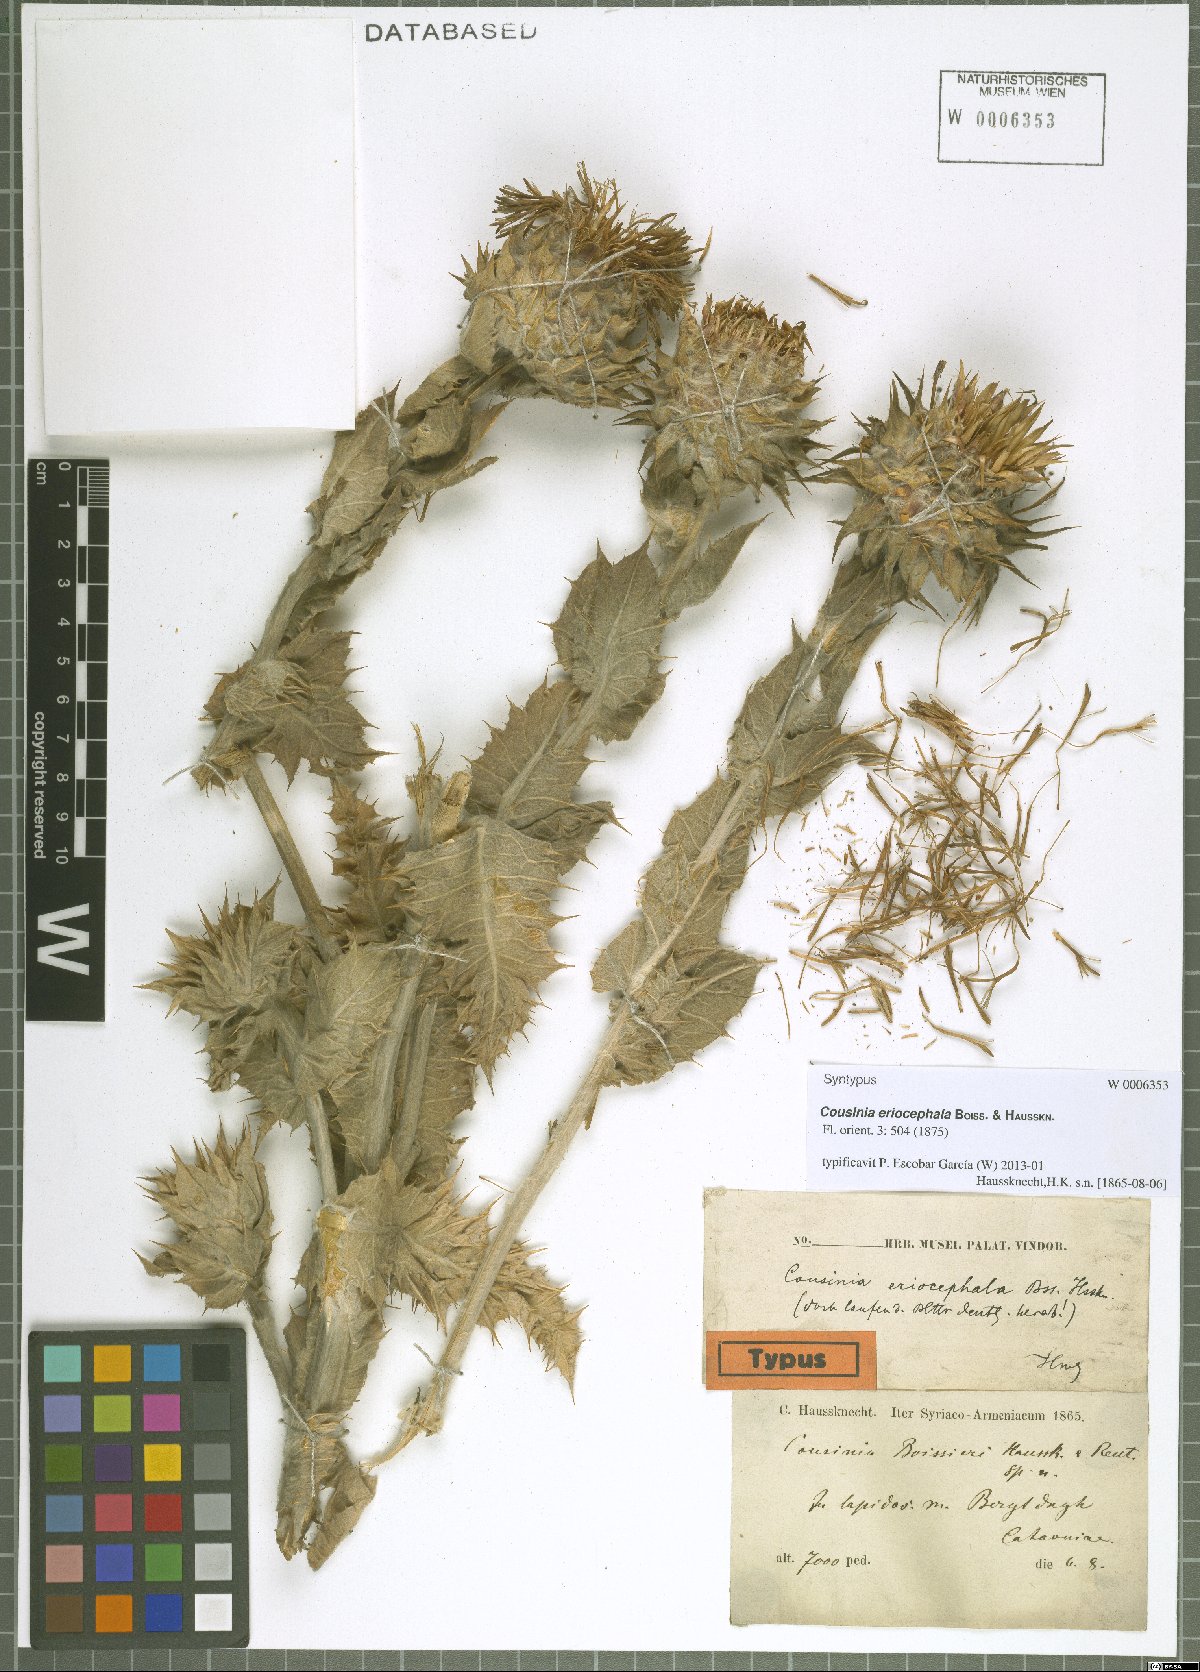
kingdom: Plantae
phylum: Tracheophyta
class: Magnoliopsida
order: Asterales
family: Asteraceae
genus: Cousinia
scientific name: Cousinia canescens
